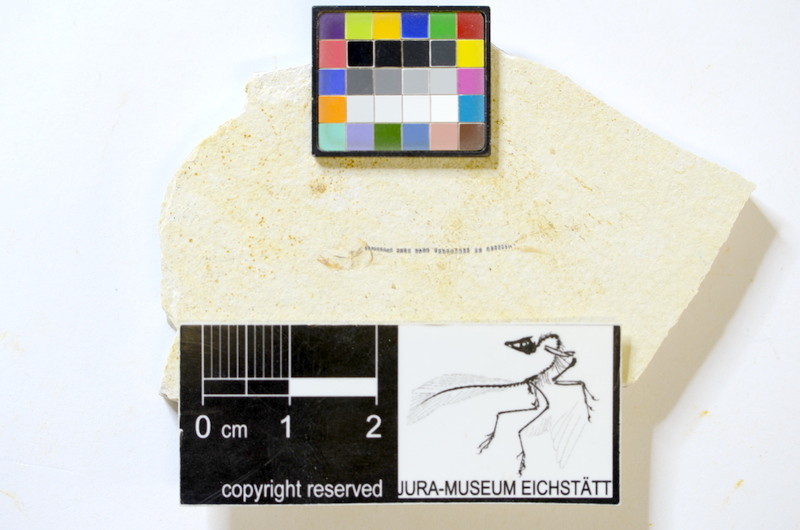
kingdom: Animalia
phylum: Chordata
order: Salmoniformes
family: Orthogonikleithridae
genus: Orthogonikleithrus
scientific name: Orthogonikleithrus hoelli
